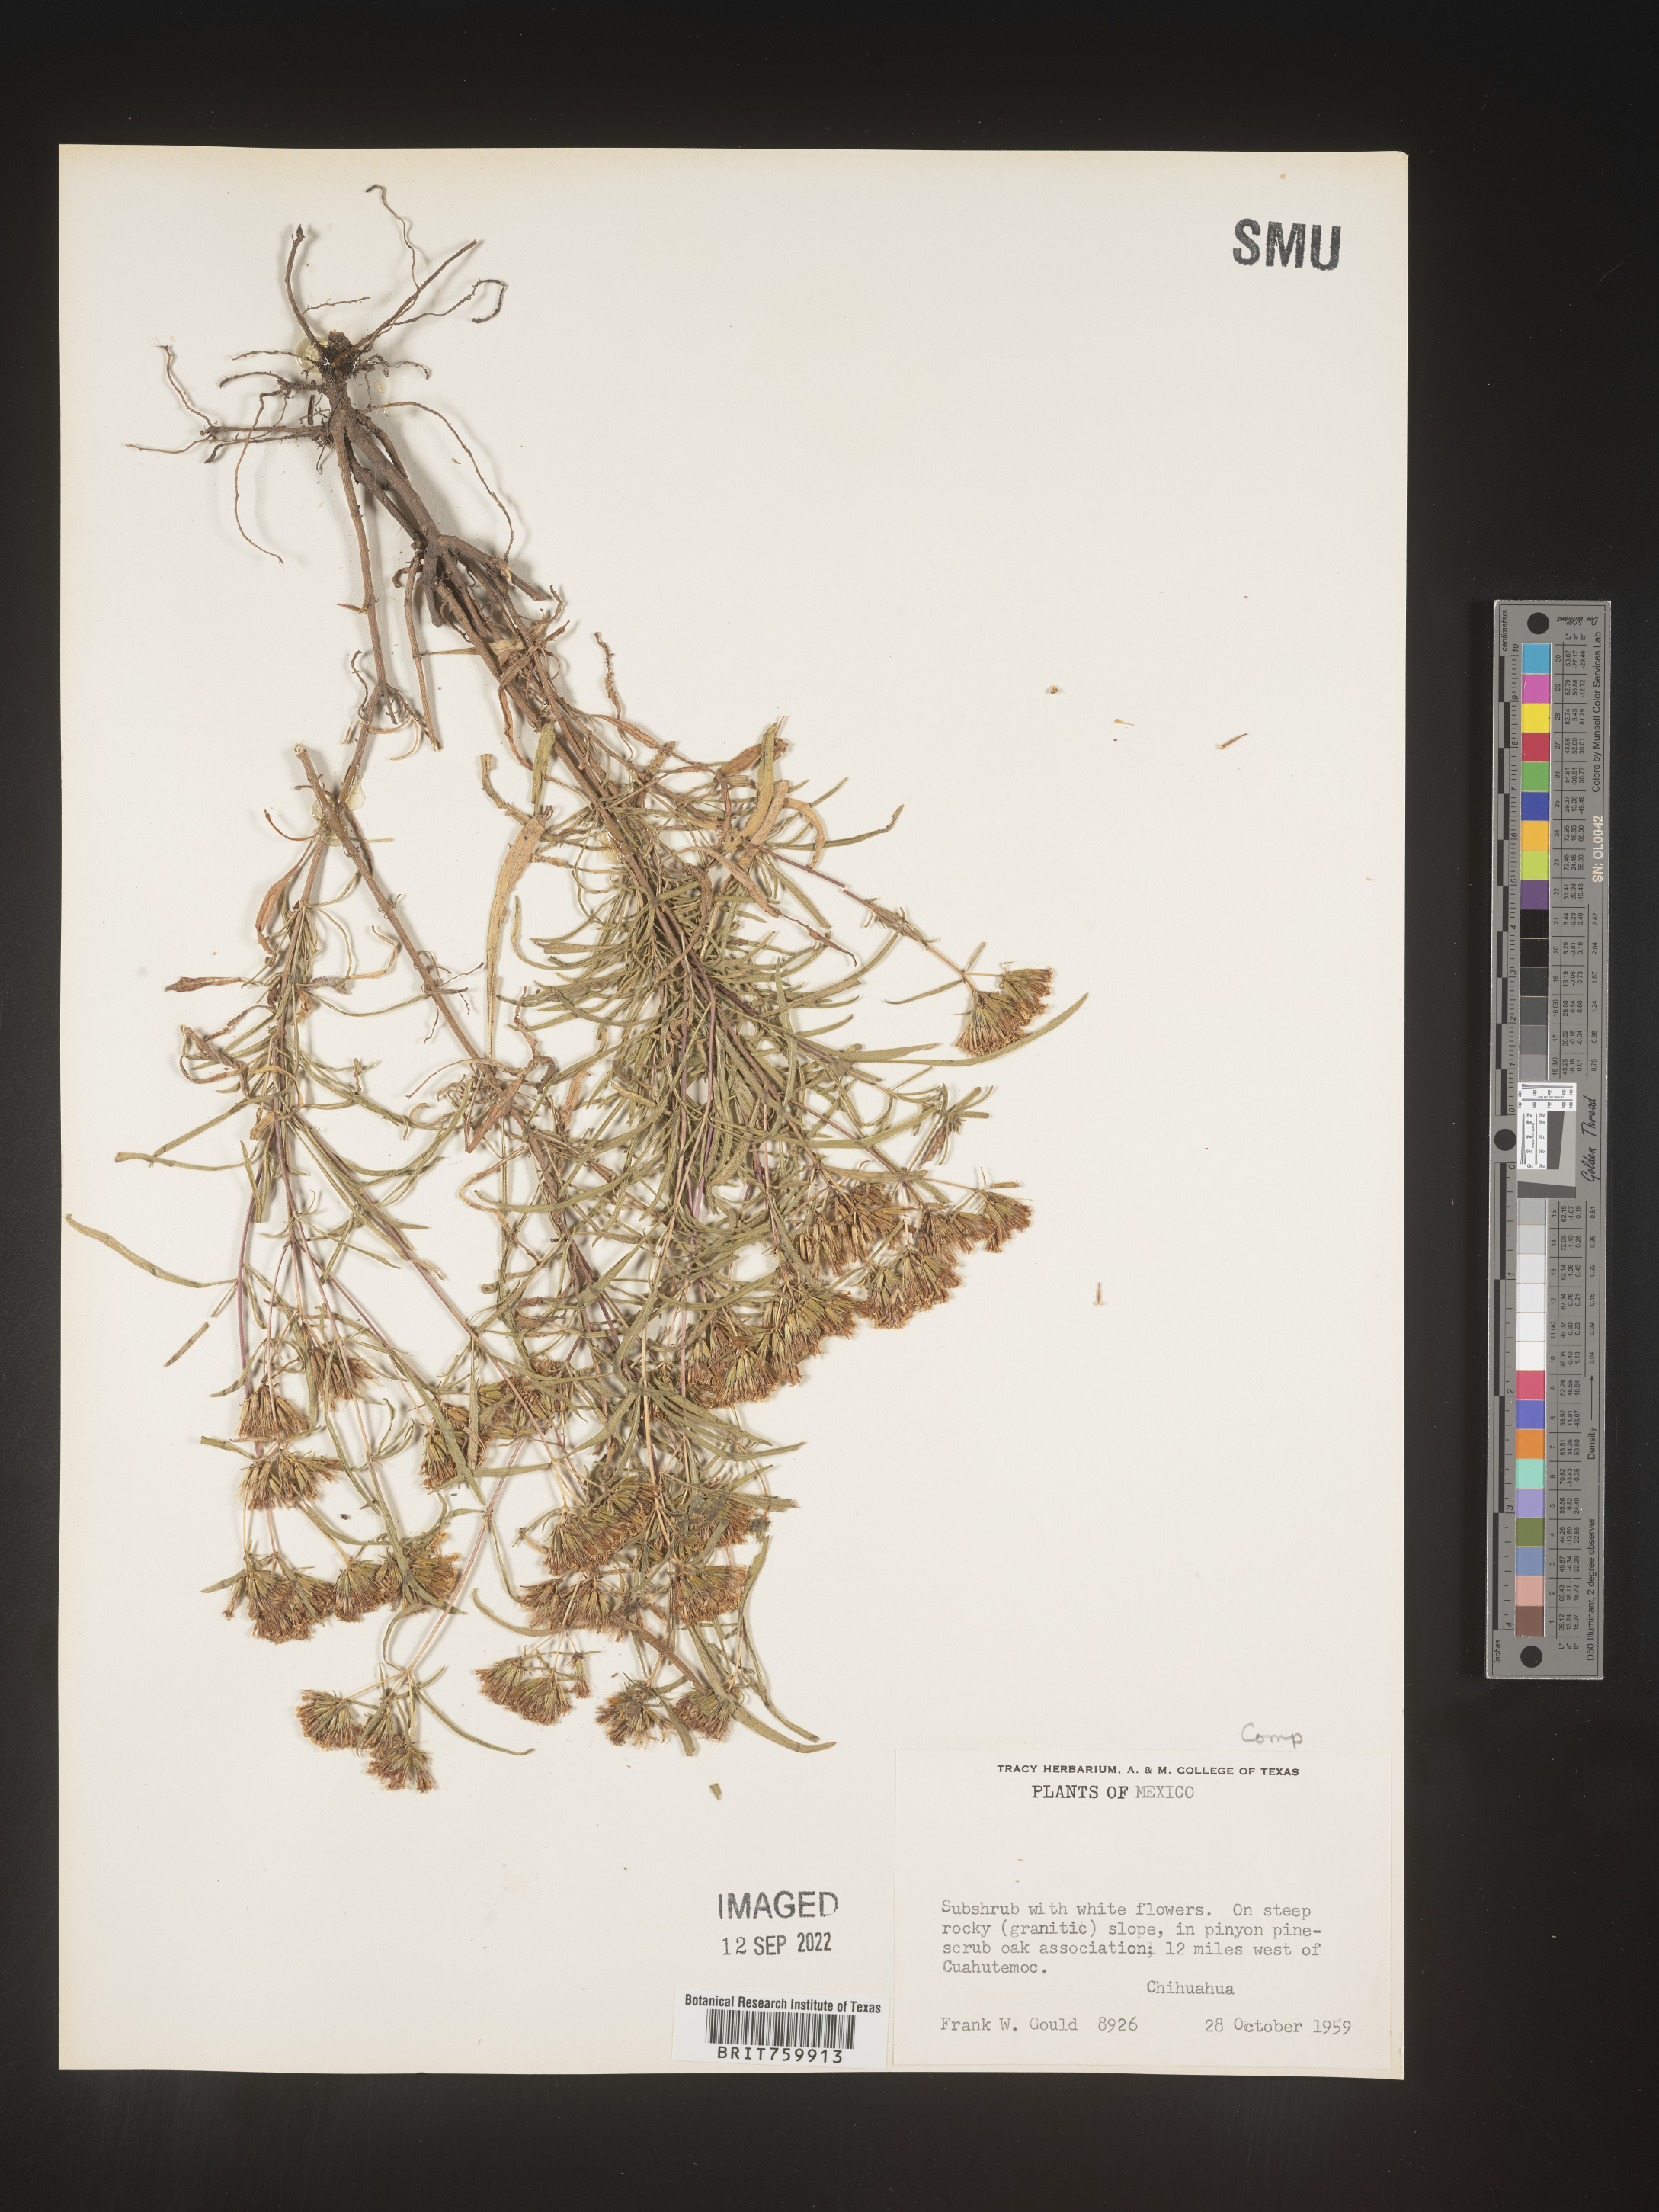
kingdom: Plantae
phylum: Tracheophyta
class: Magnoliopsida
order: Asterales
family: Asteraceae
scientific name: Asteraceae
